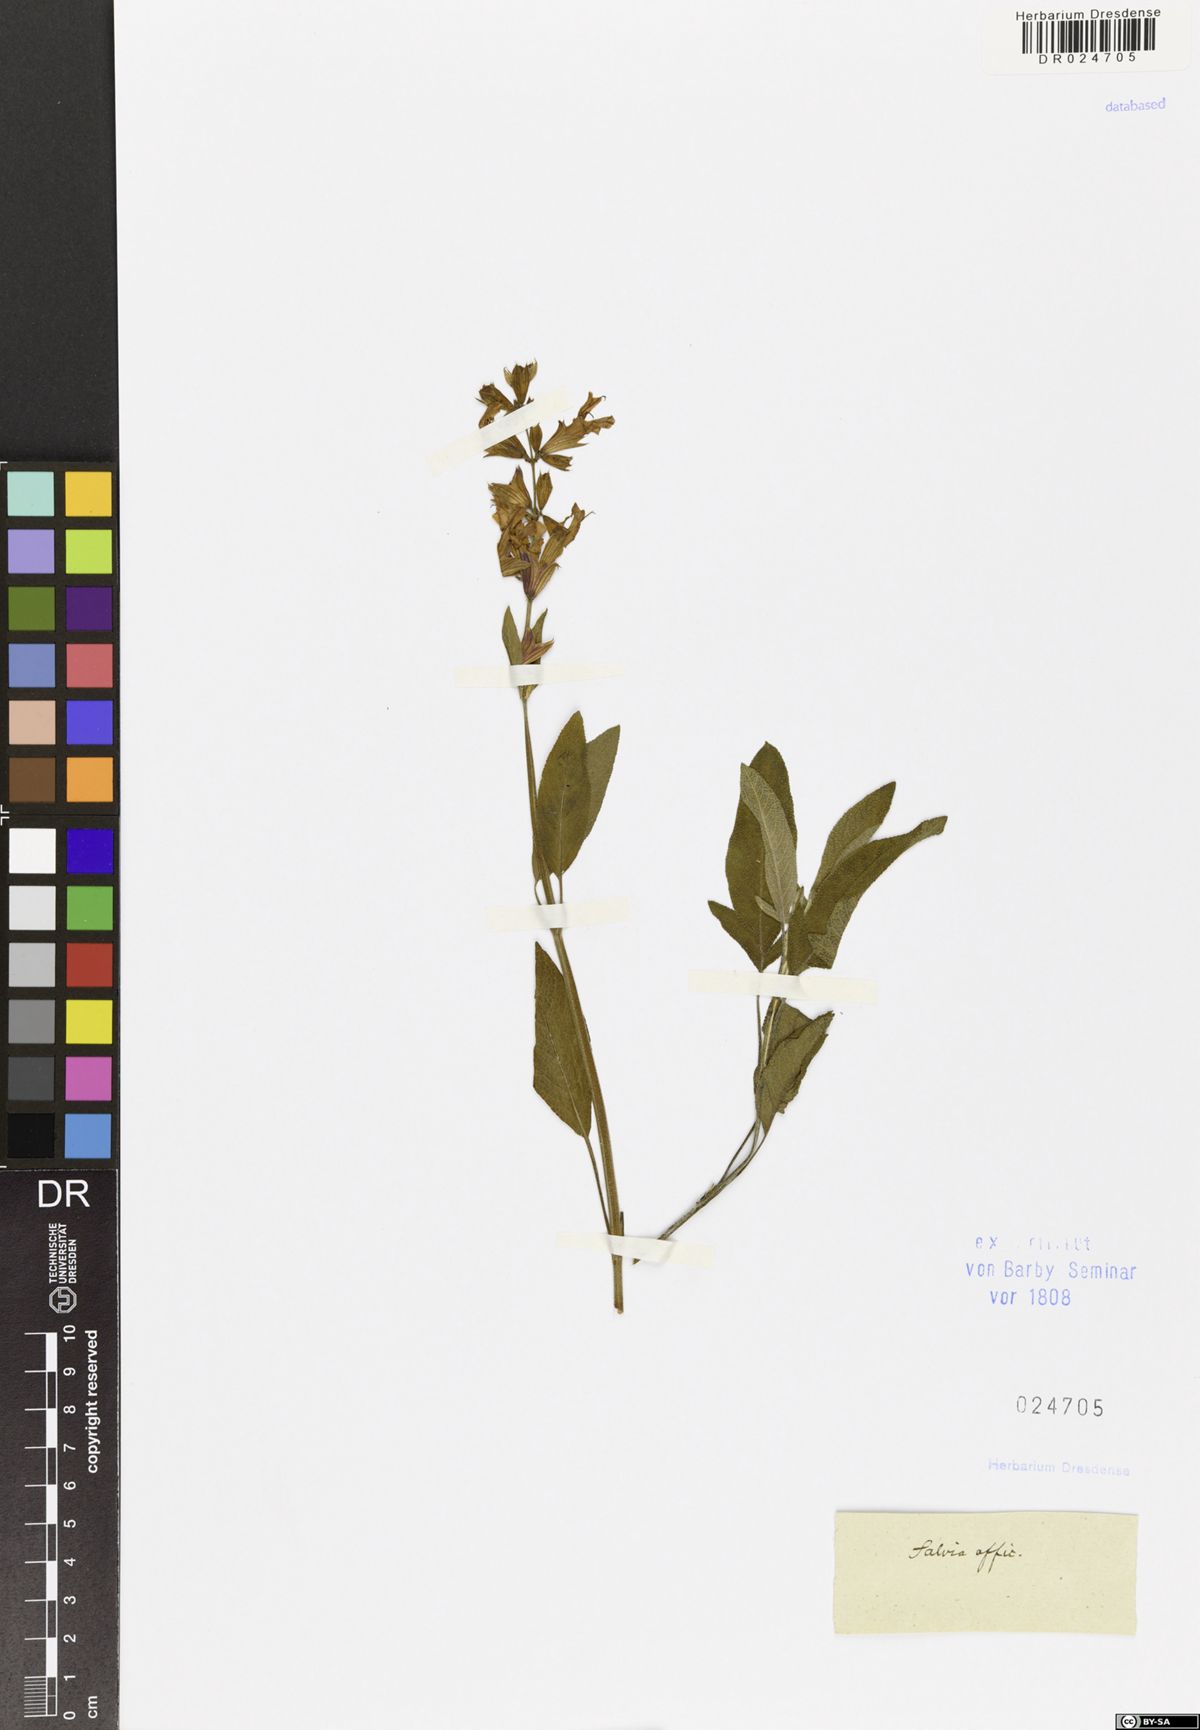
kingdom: Plantae
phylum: Tracheophyta
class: Magnoliopsida
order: Lamiales
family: Lamiaceae
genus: Salvia
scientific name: Salvia officinalis
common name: Sage
